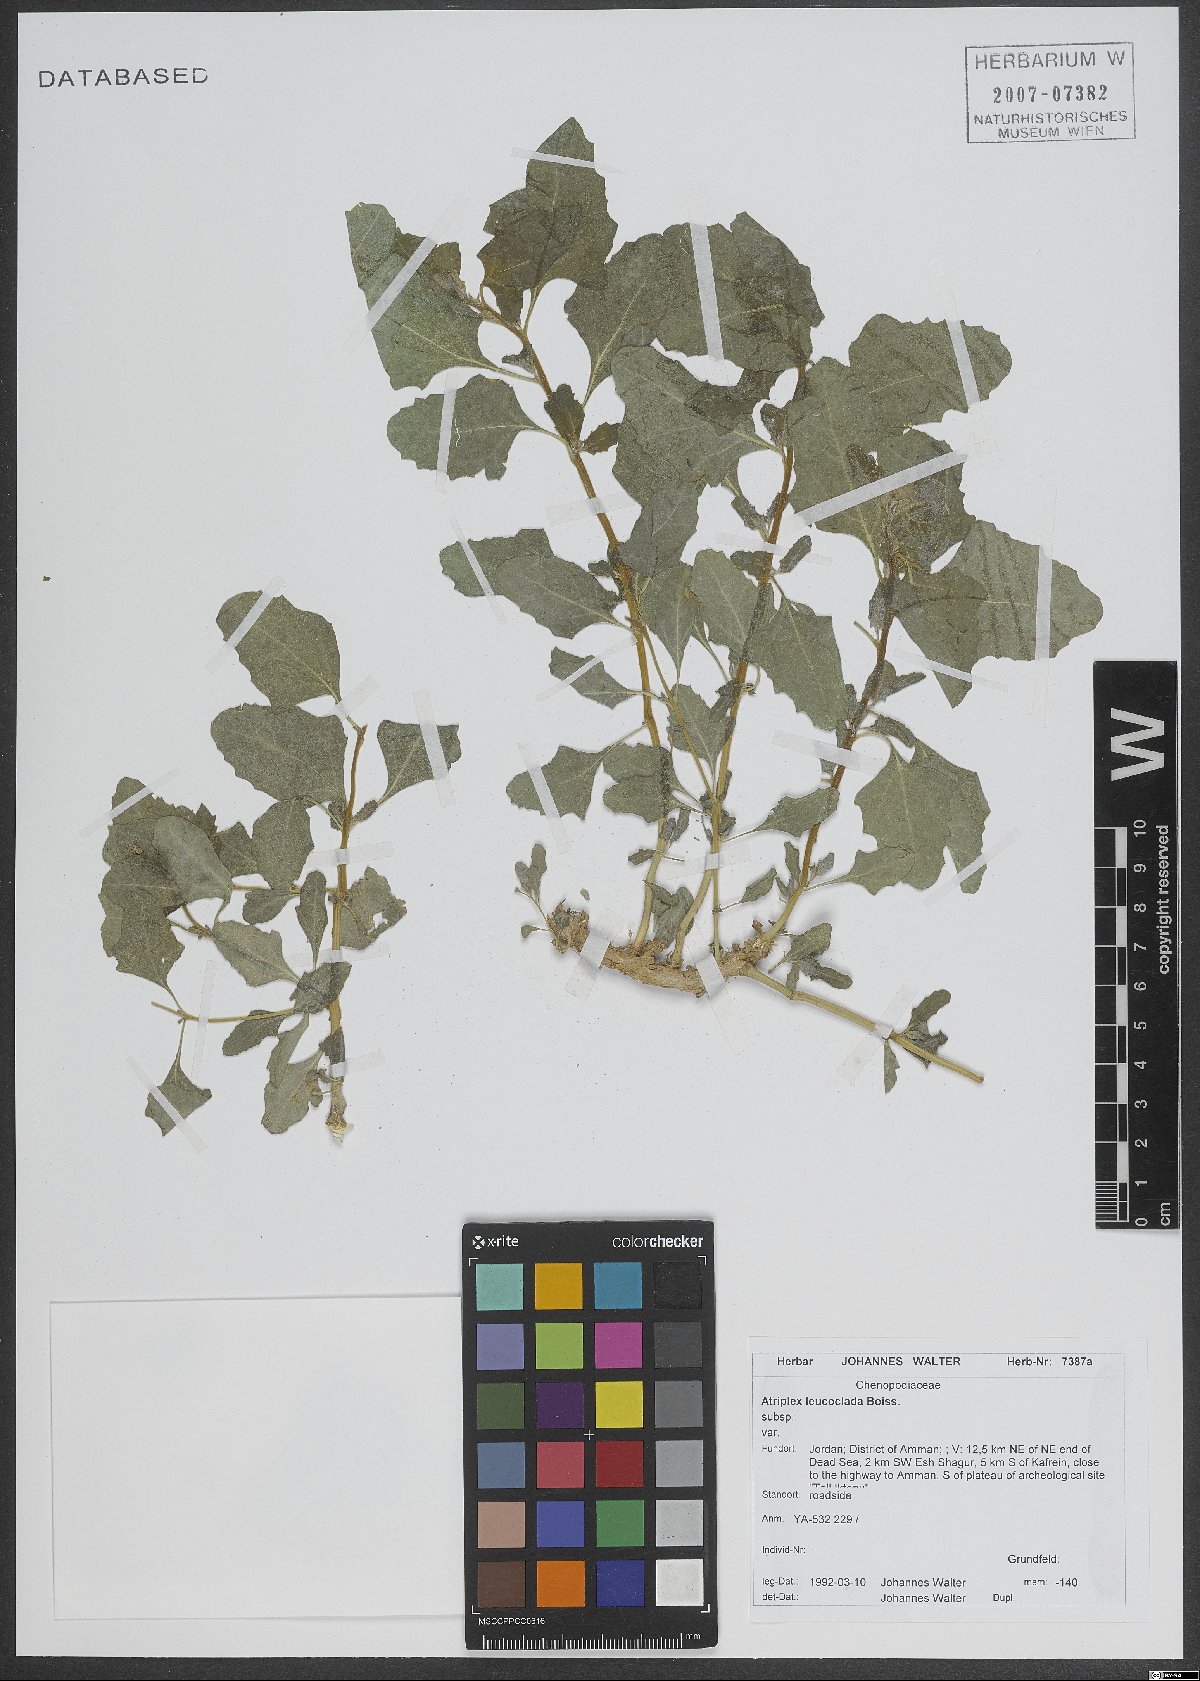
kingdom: Plantae
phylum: Tracheophyta
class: Magnoliopsida
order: Caryophyllales
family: Amaranthaceae
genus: Atriplex
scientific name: Atriplex turcomanica
